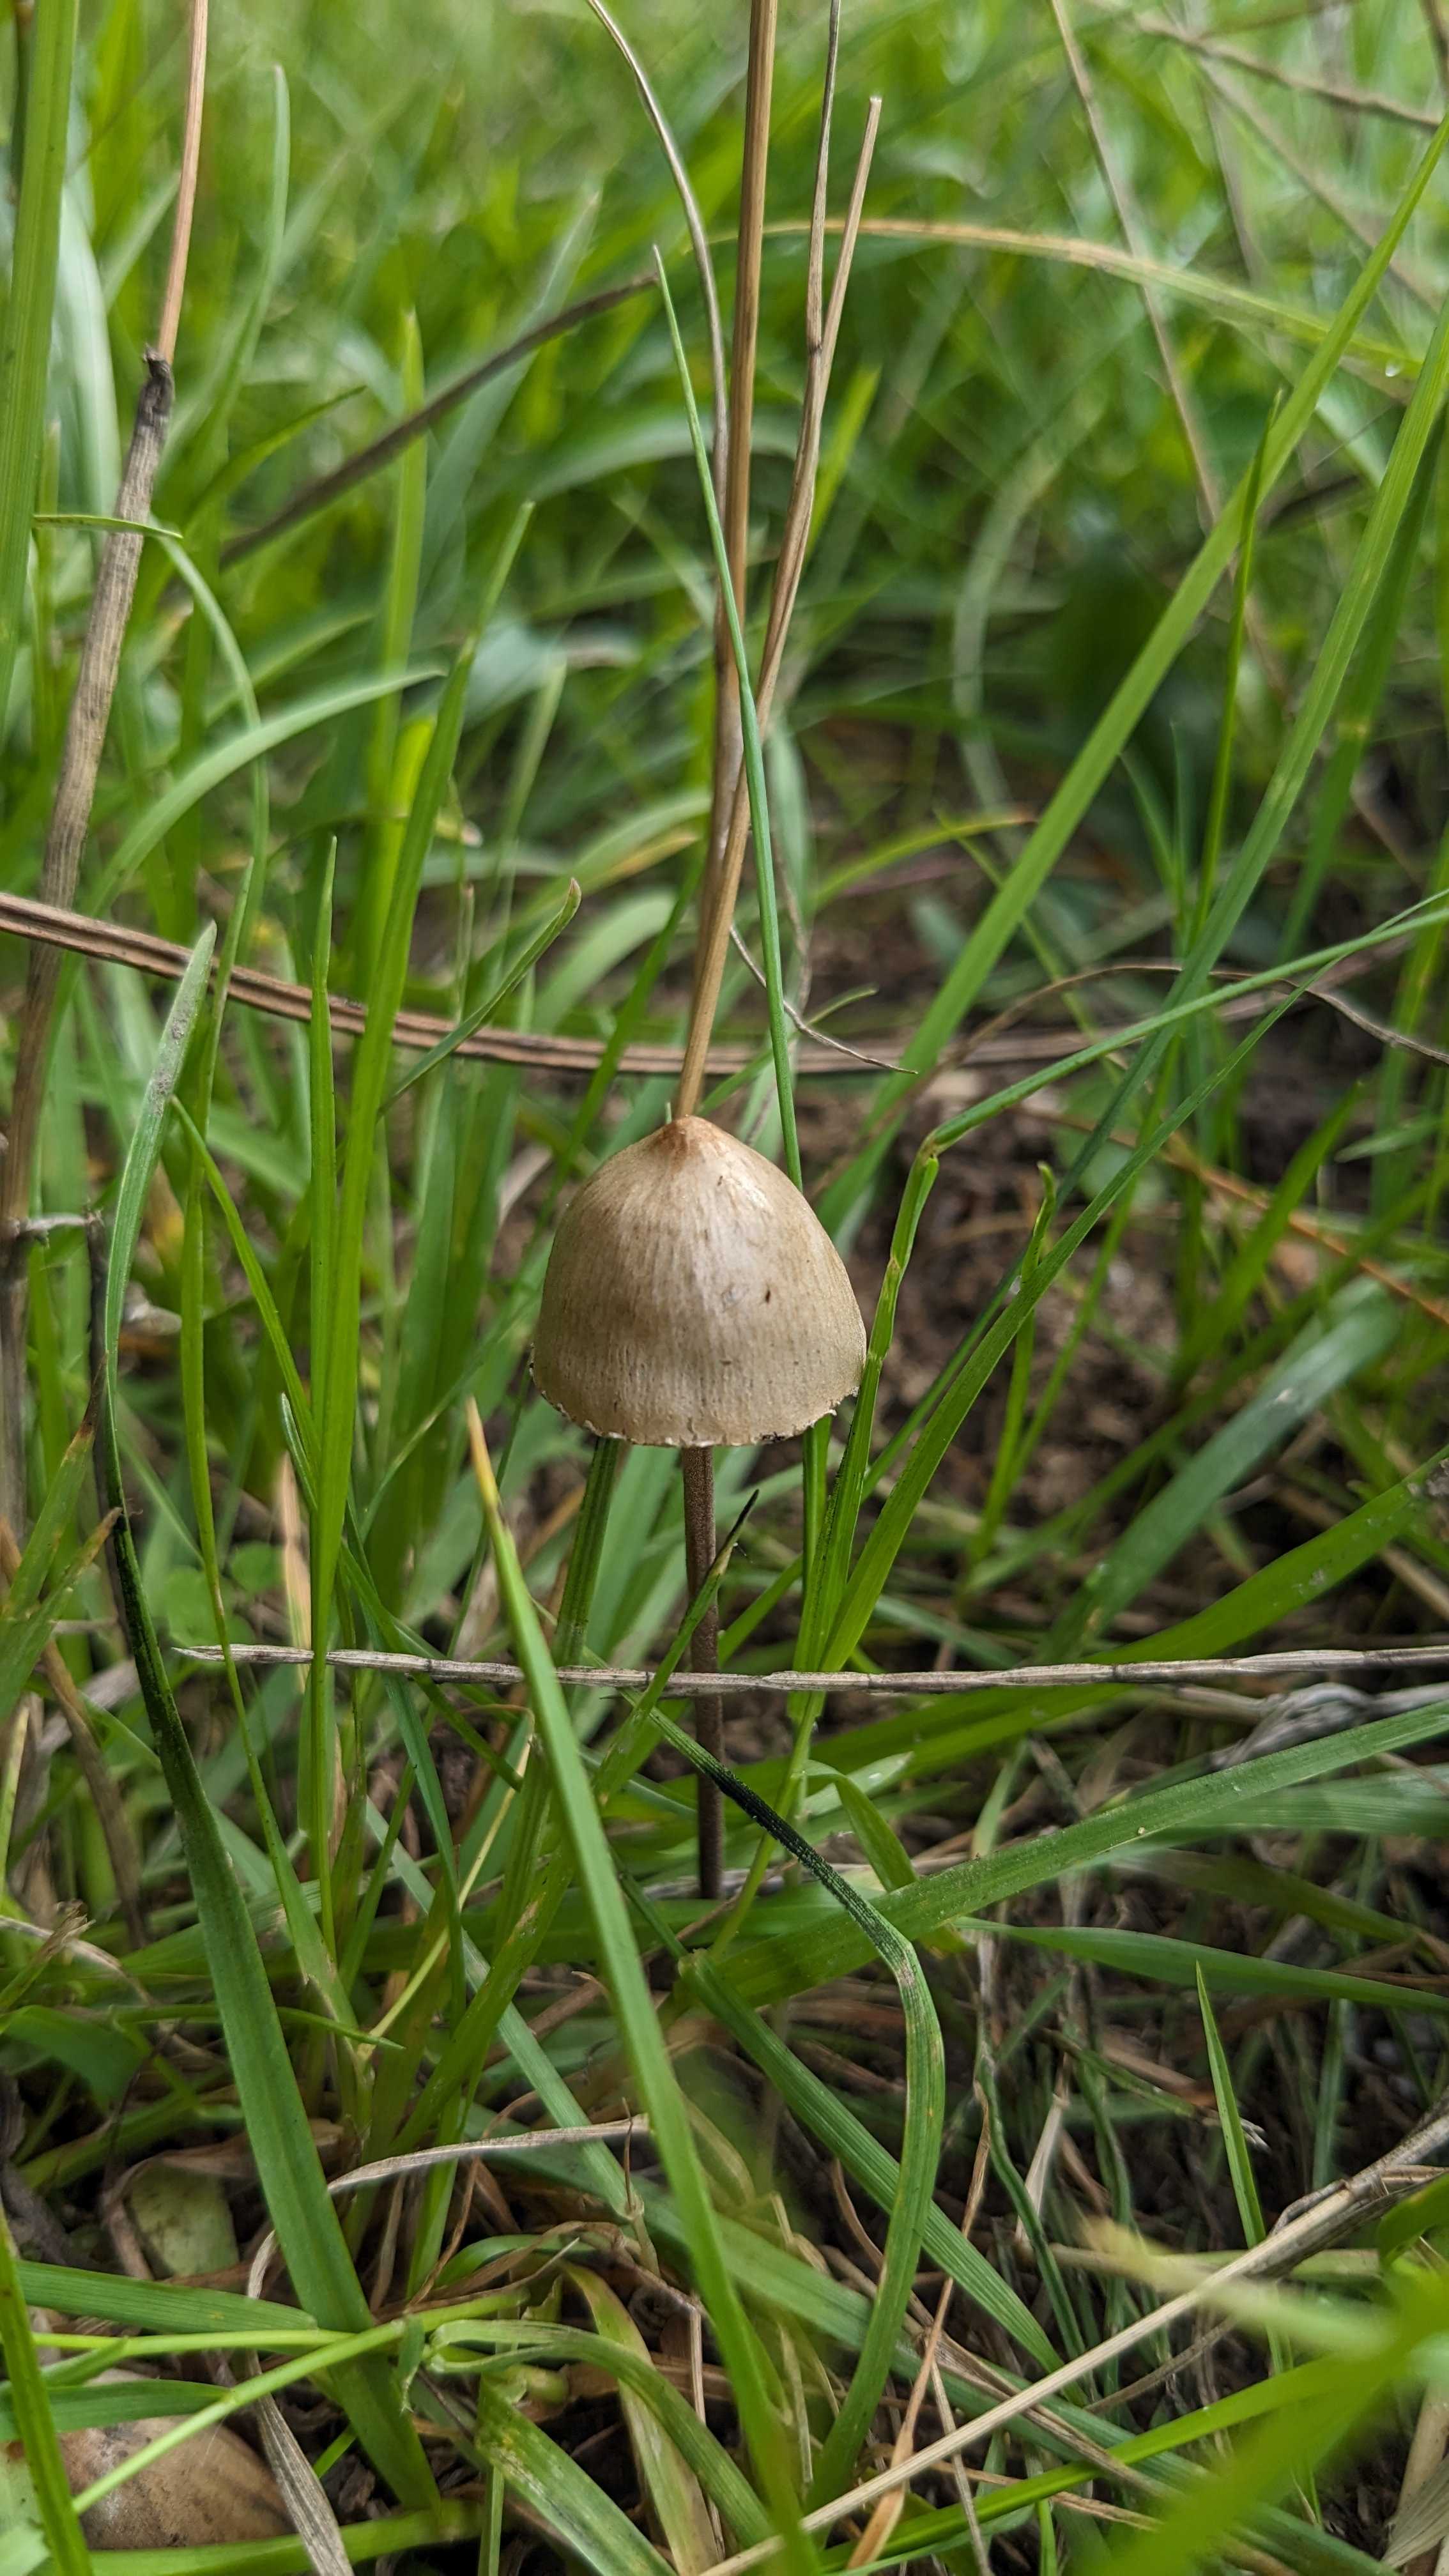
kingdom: Fungi
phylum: Basidiomycota
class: Agaricomycetes
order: Agaricales
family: Bolbitiaceae
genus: Panaeolus
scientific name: Panaeolus papilionaceus
